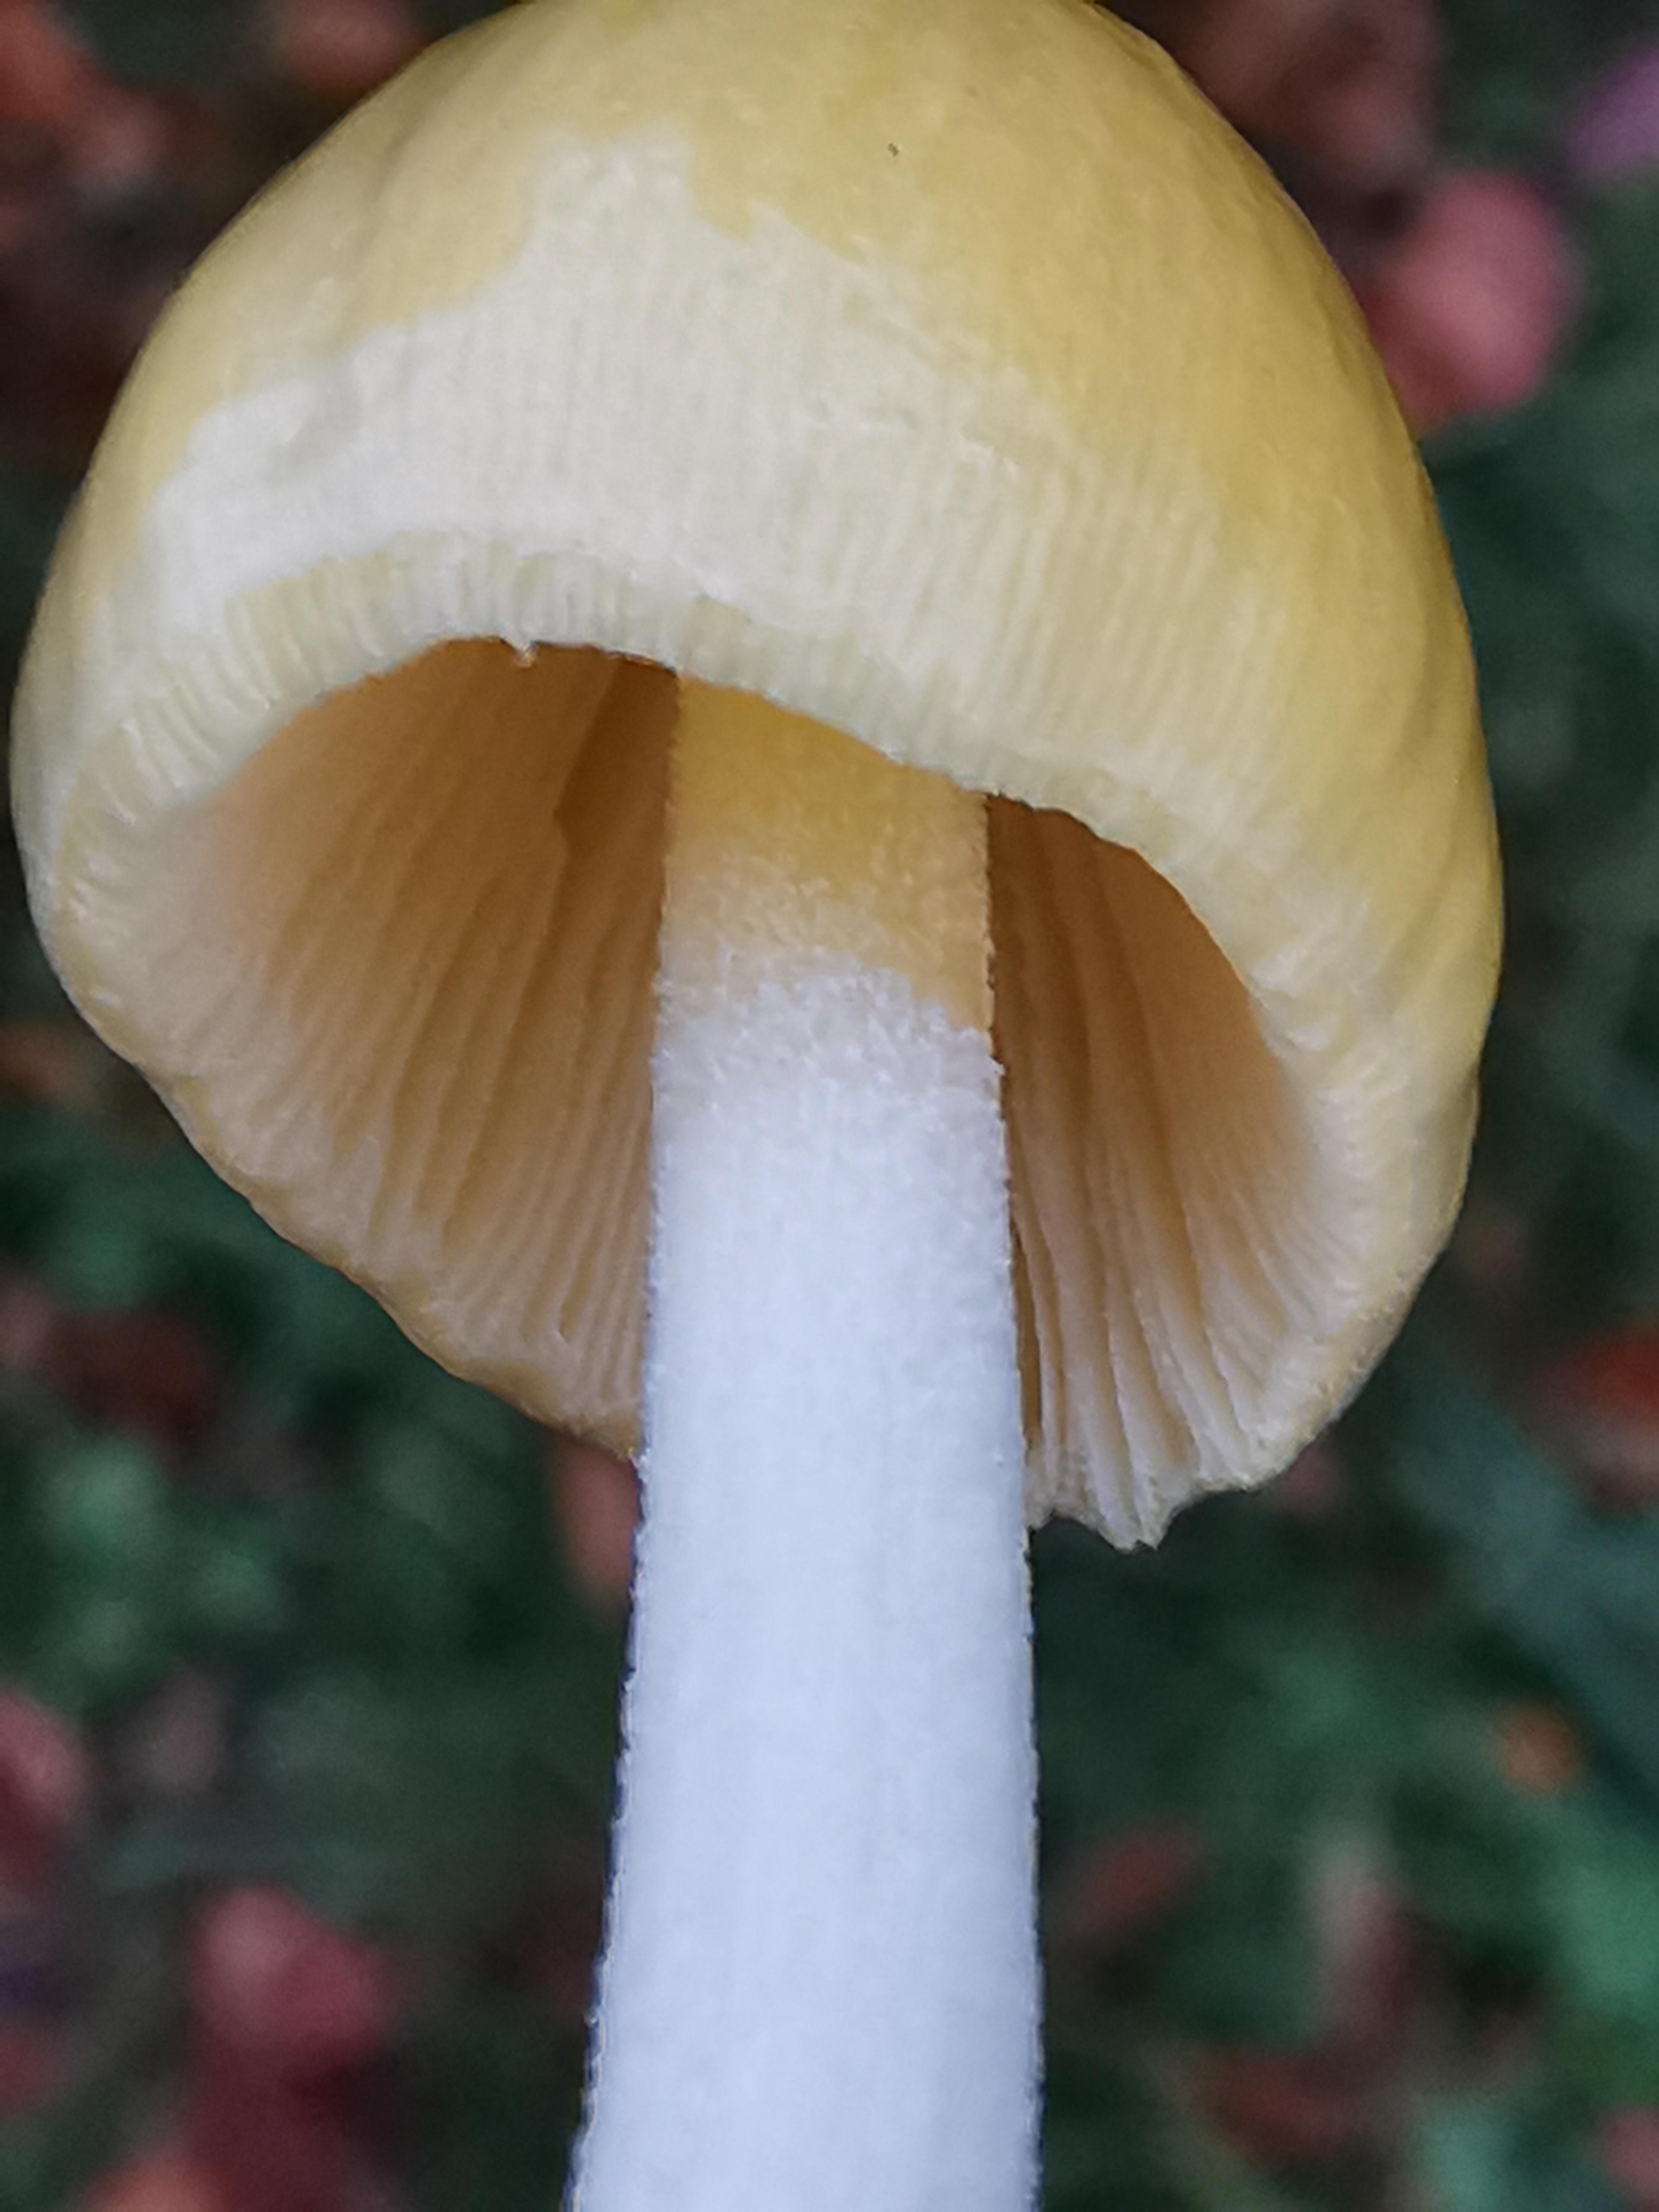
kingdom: Fungi
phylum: Basidiomycota
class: Agaricomycetes
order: Agaricales
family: Bolbitiaceae
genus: Bolbitius
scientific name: Bolbitius titubans
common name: almindelig gulhat
